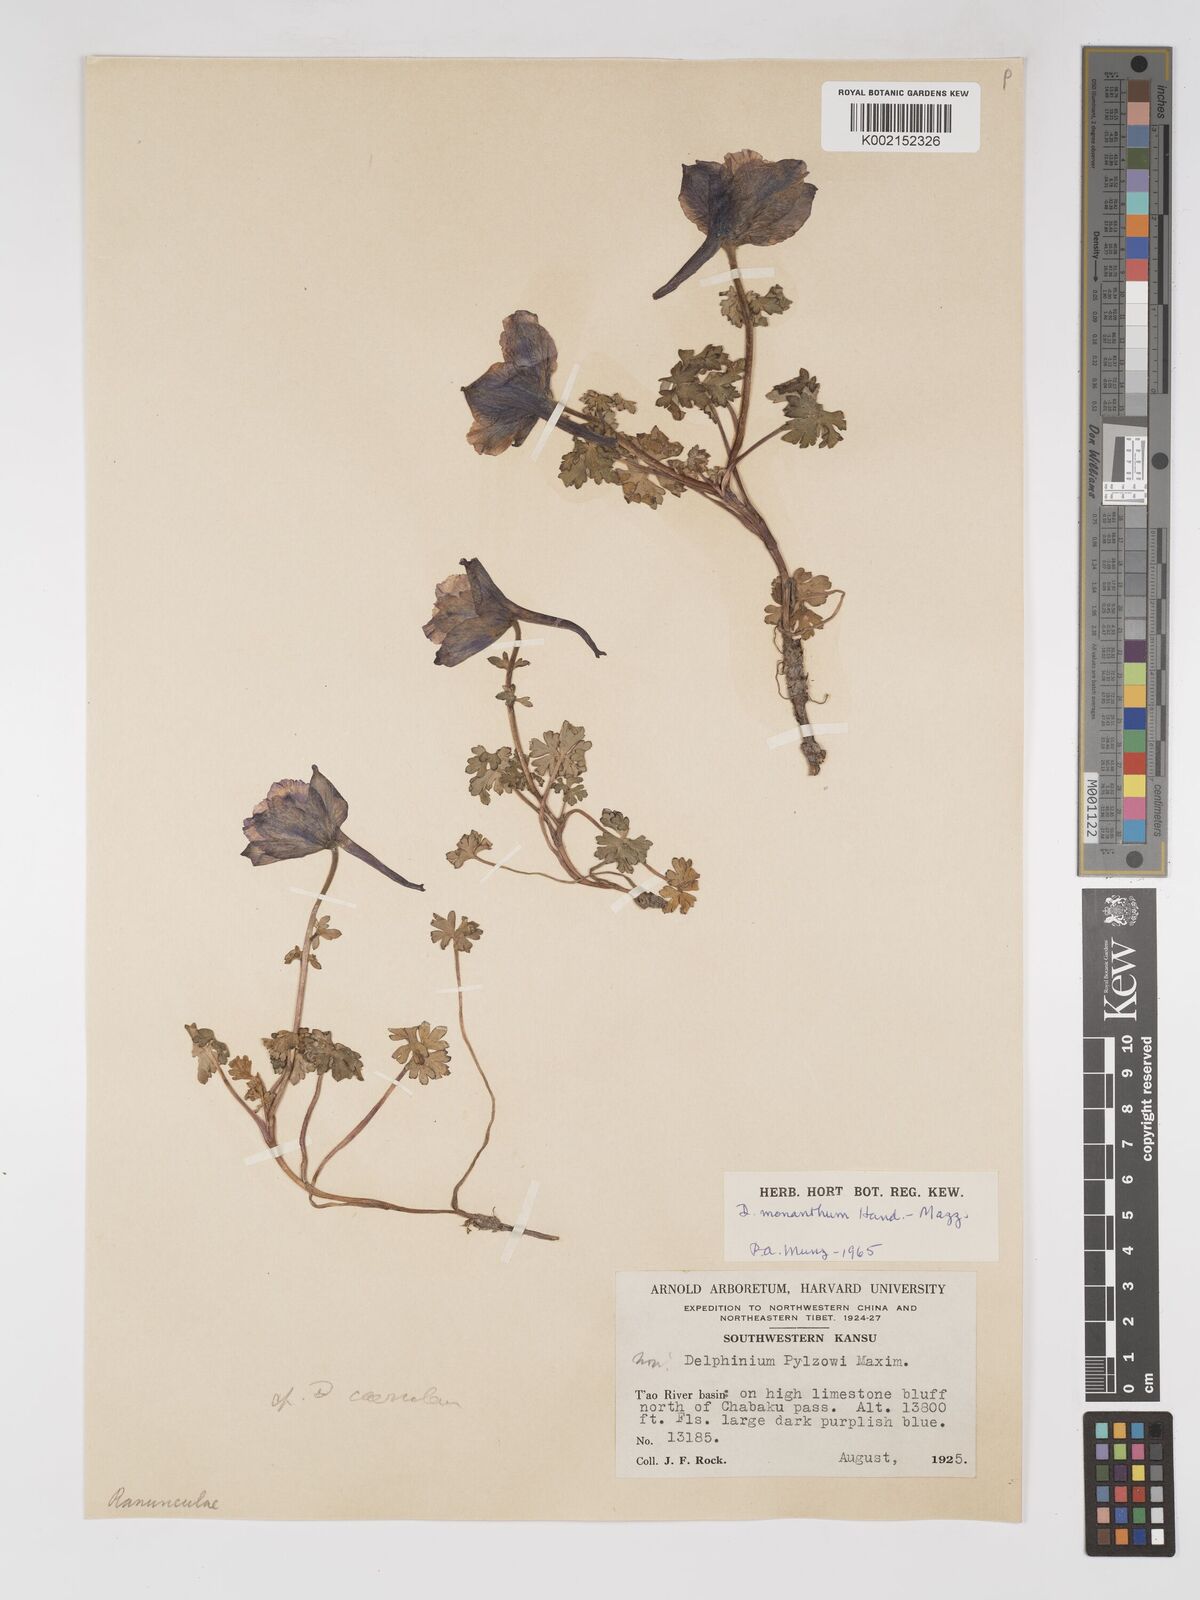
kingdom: Plantae
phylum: Tracheophyta
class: Magnoliopsida
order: Ranunculales
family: Ranunculaceae
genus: Delphinium
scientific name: Delphinium monanthum
